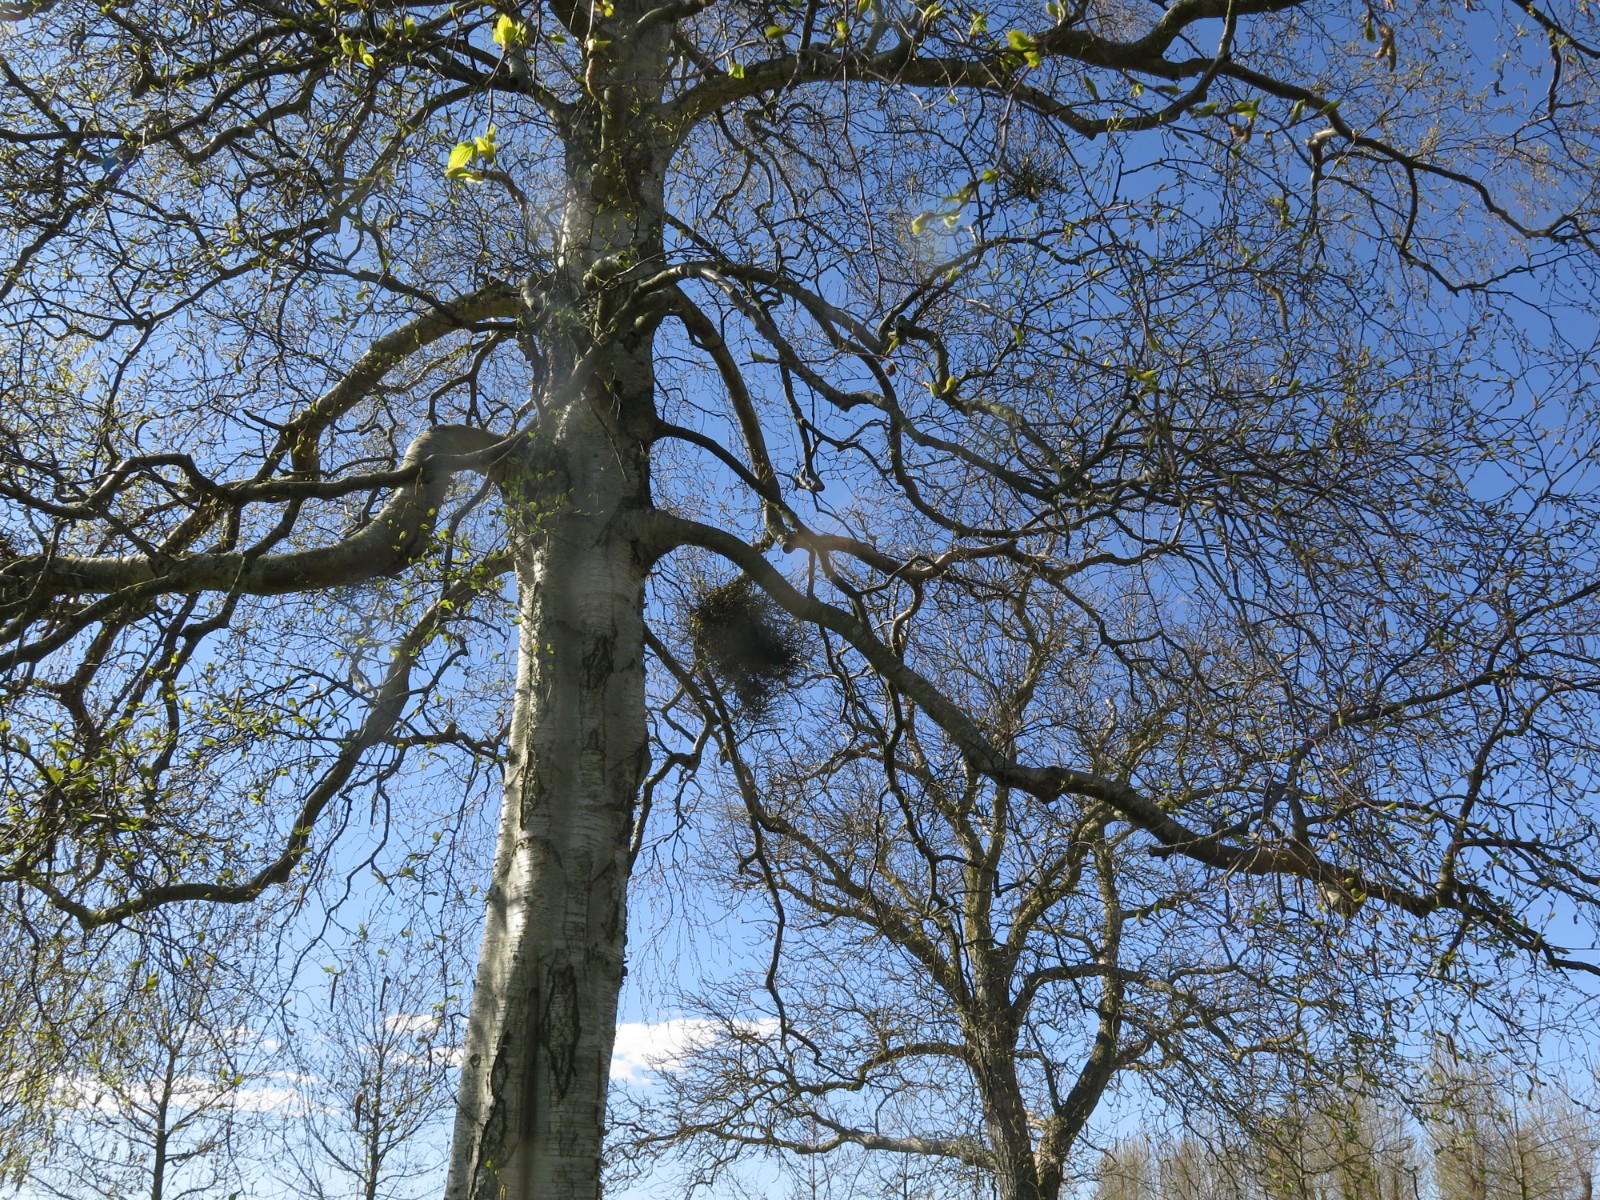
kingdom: Fungi
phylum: Ascomycota
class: Taphrinomycetes
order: Taphrinales
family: Taphrinaceae
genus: Taphrina
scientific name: Taphrina betulina
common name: hekse-sækdug
